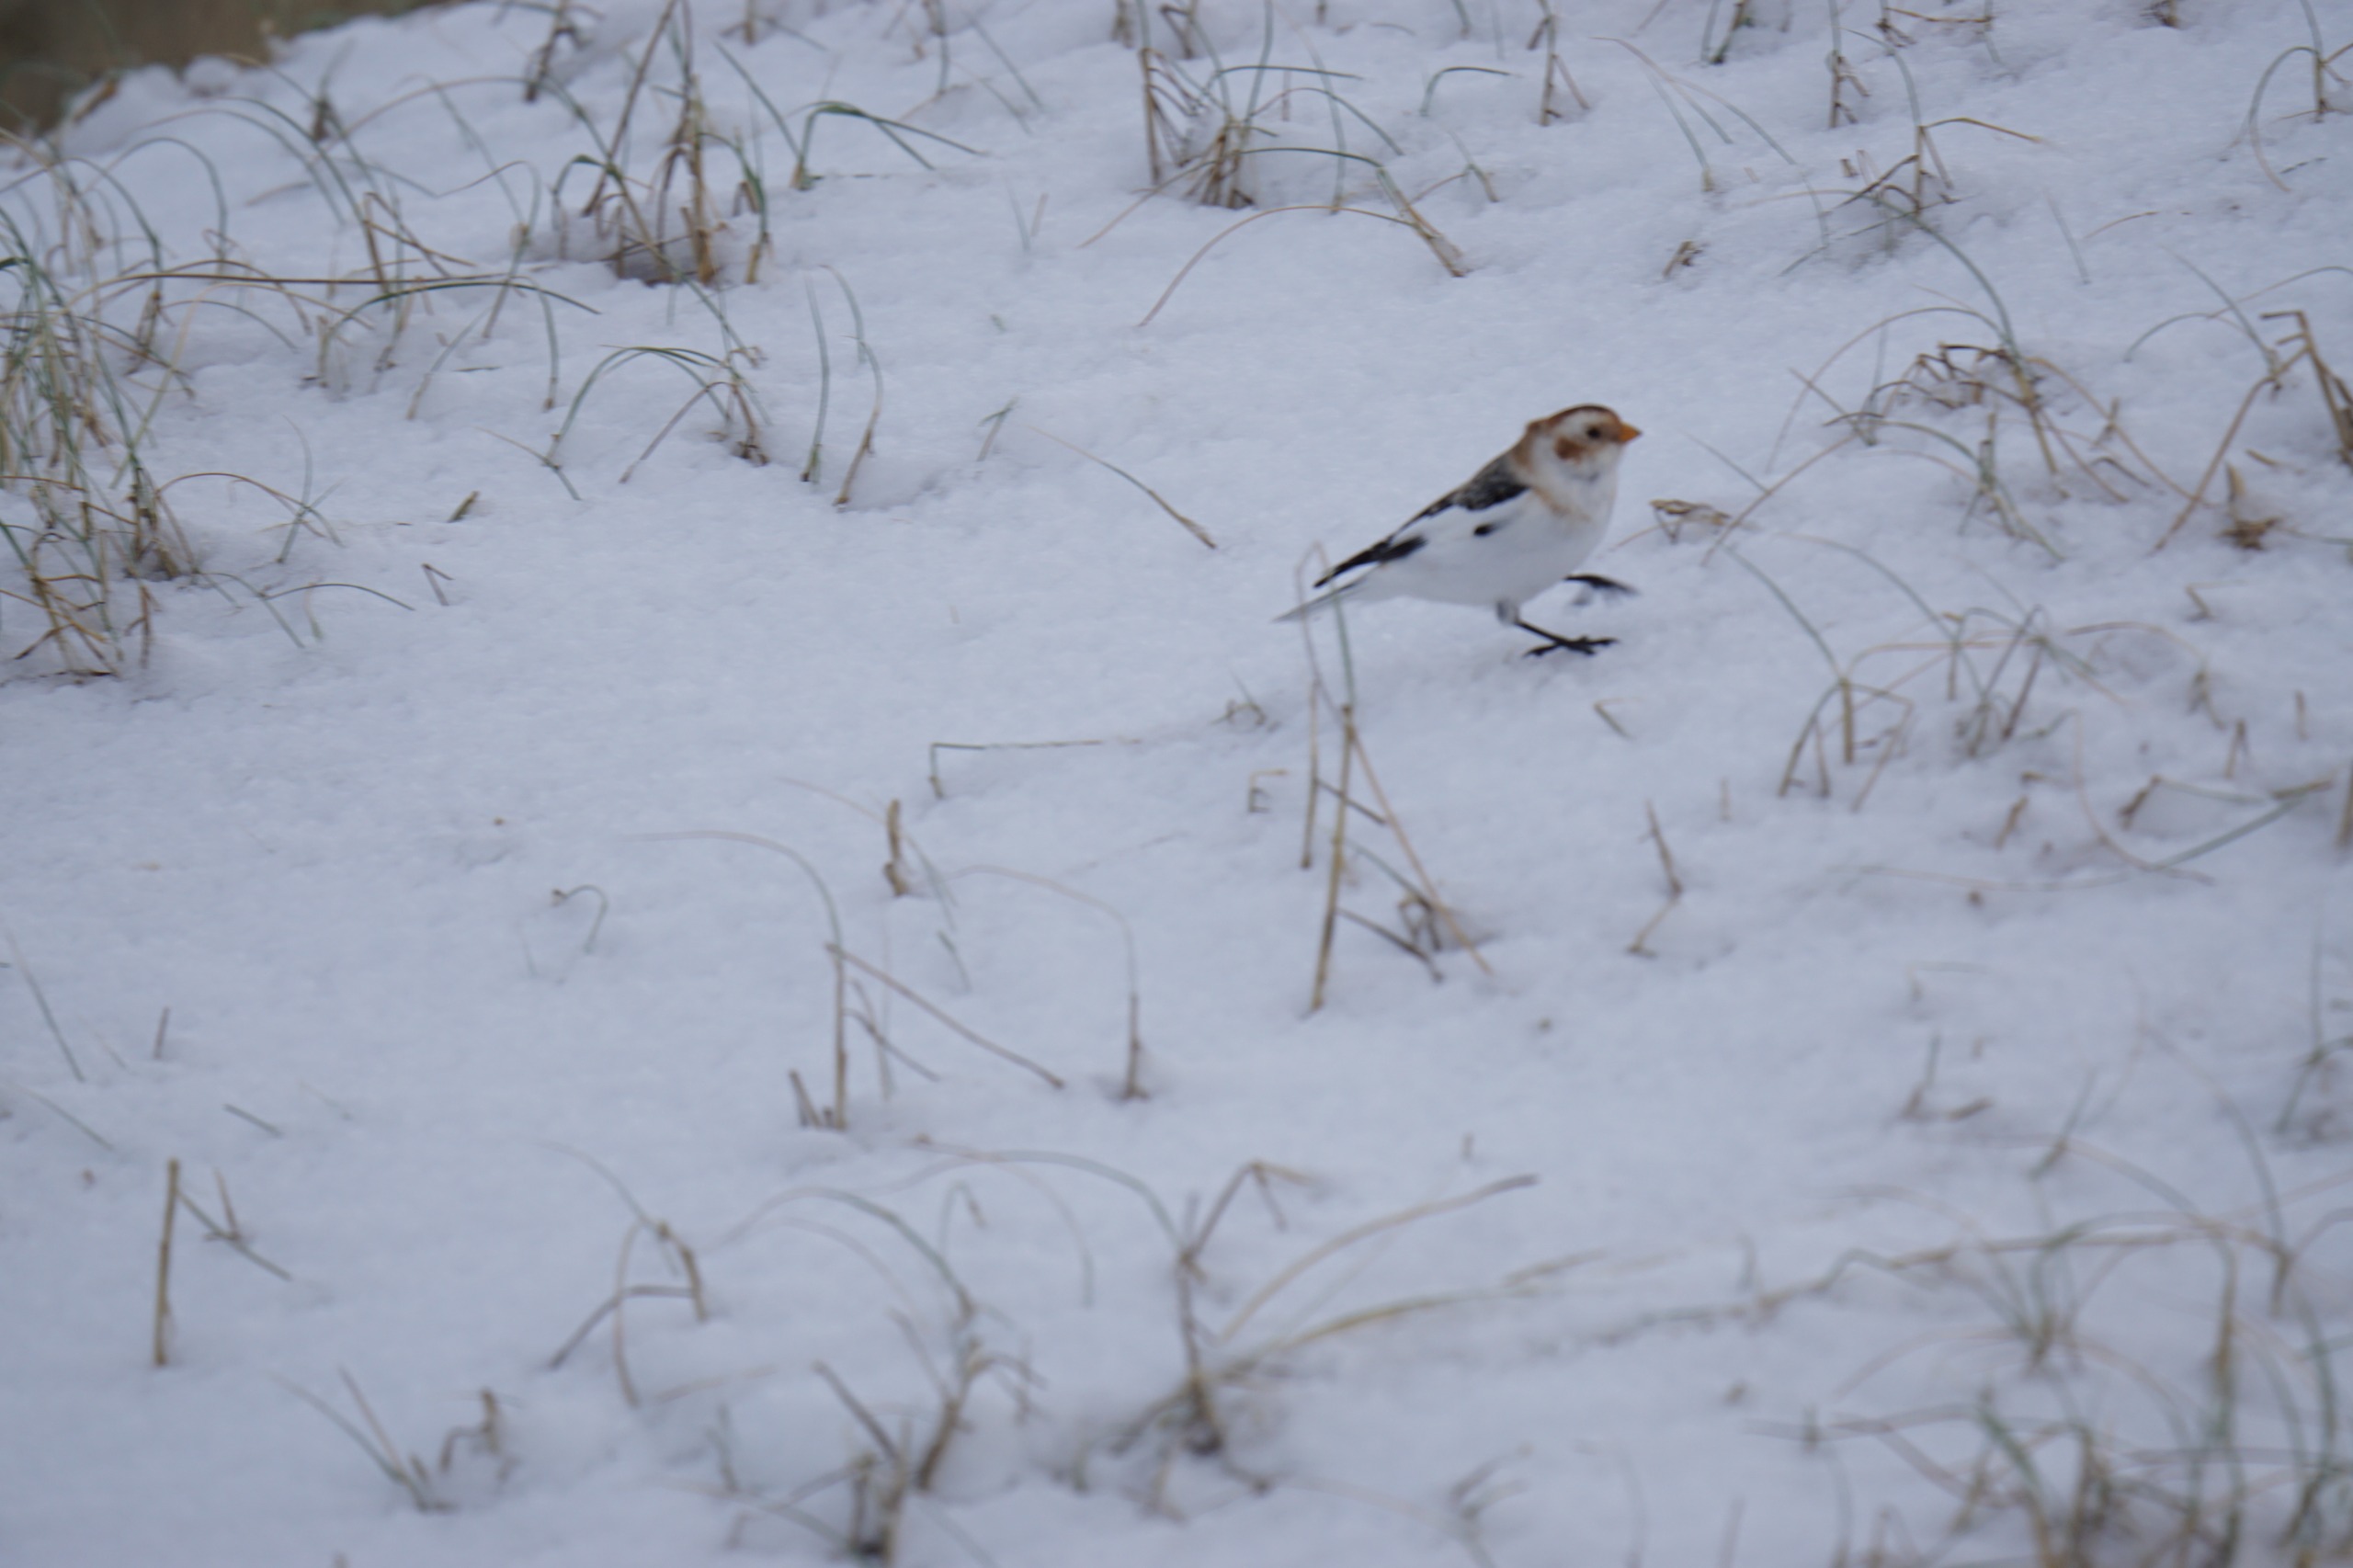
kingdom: Animalia
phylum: Chordata
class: Aves
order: Passeriformes
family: Calcariidae
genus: Plectrophenax
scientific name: Plectrophenax nivalis
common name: Snespurv
